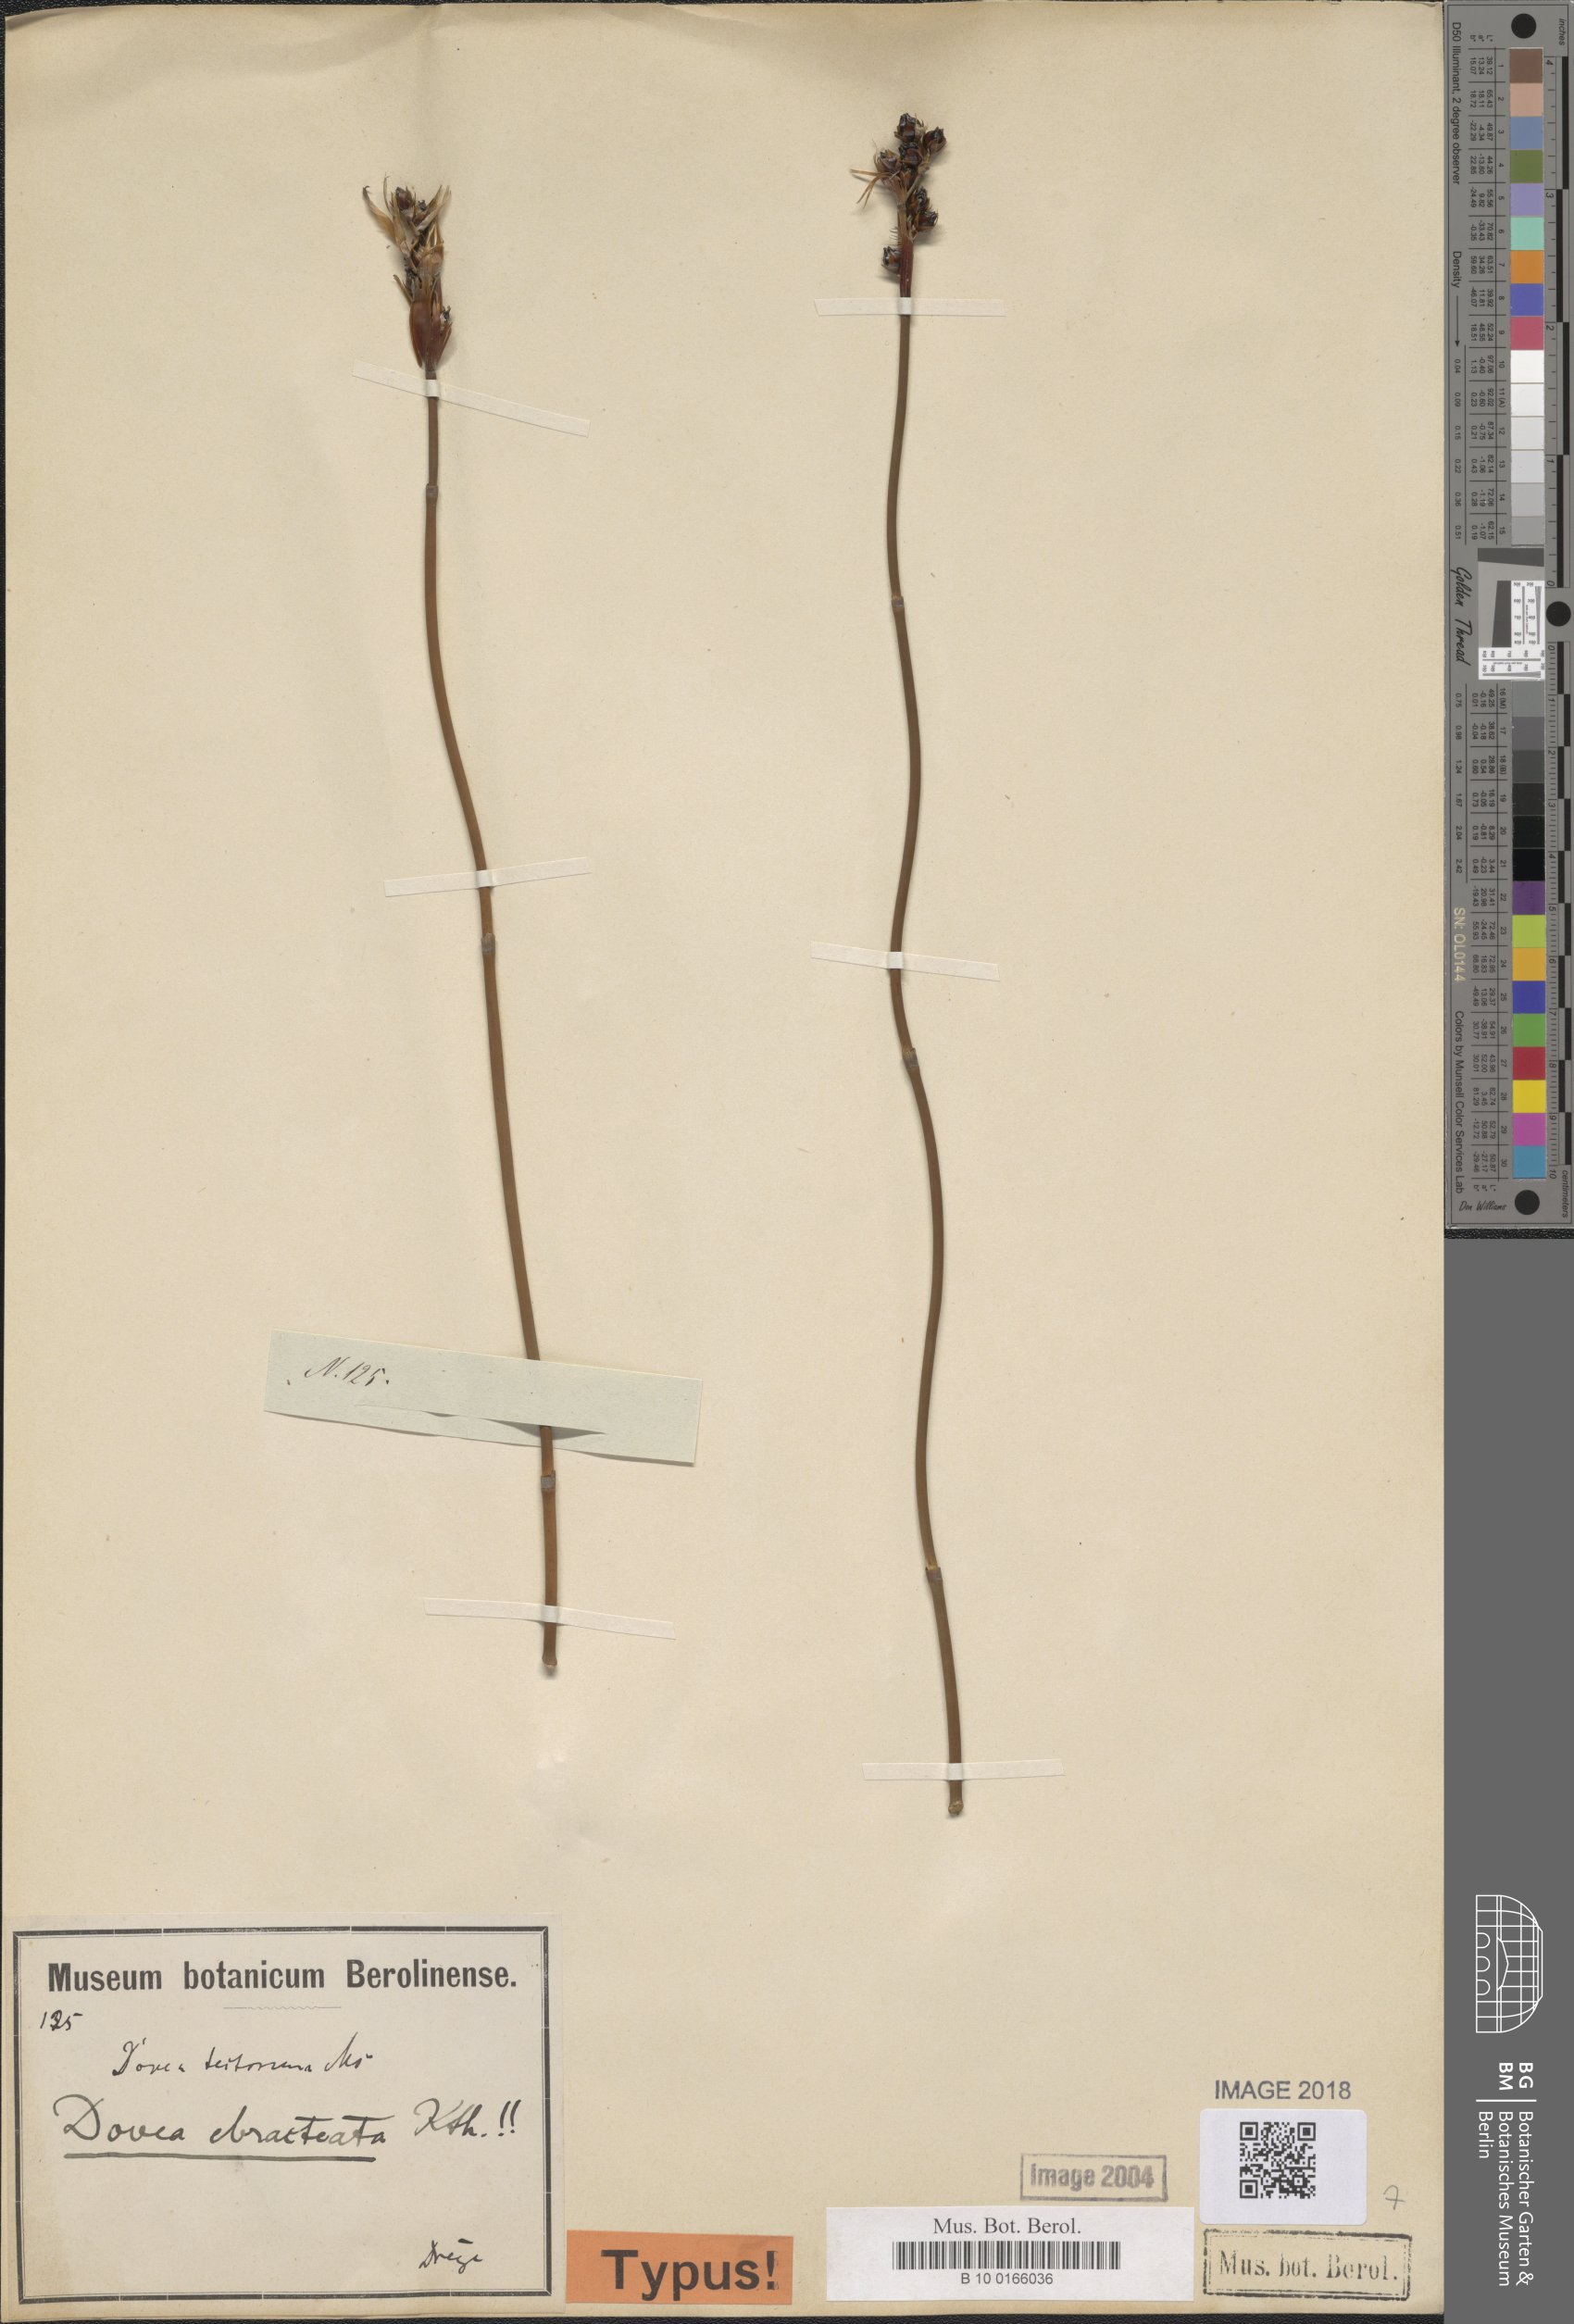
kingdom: Plantae
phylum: Tracheophyta
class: Liliopsida
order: Poales
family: Restionaceae
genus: Elegia
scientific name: Elegia ebracteata
